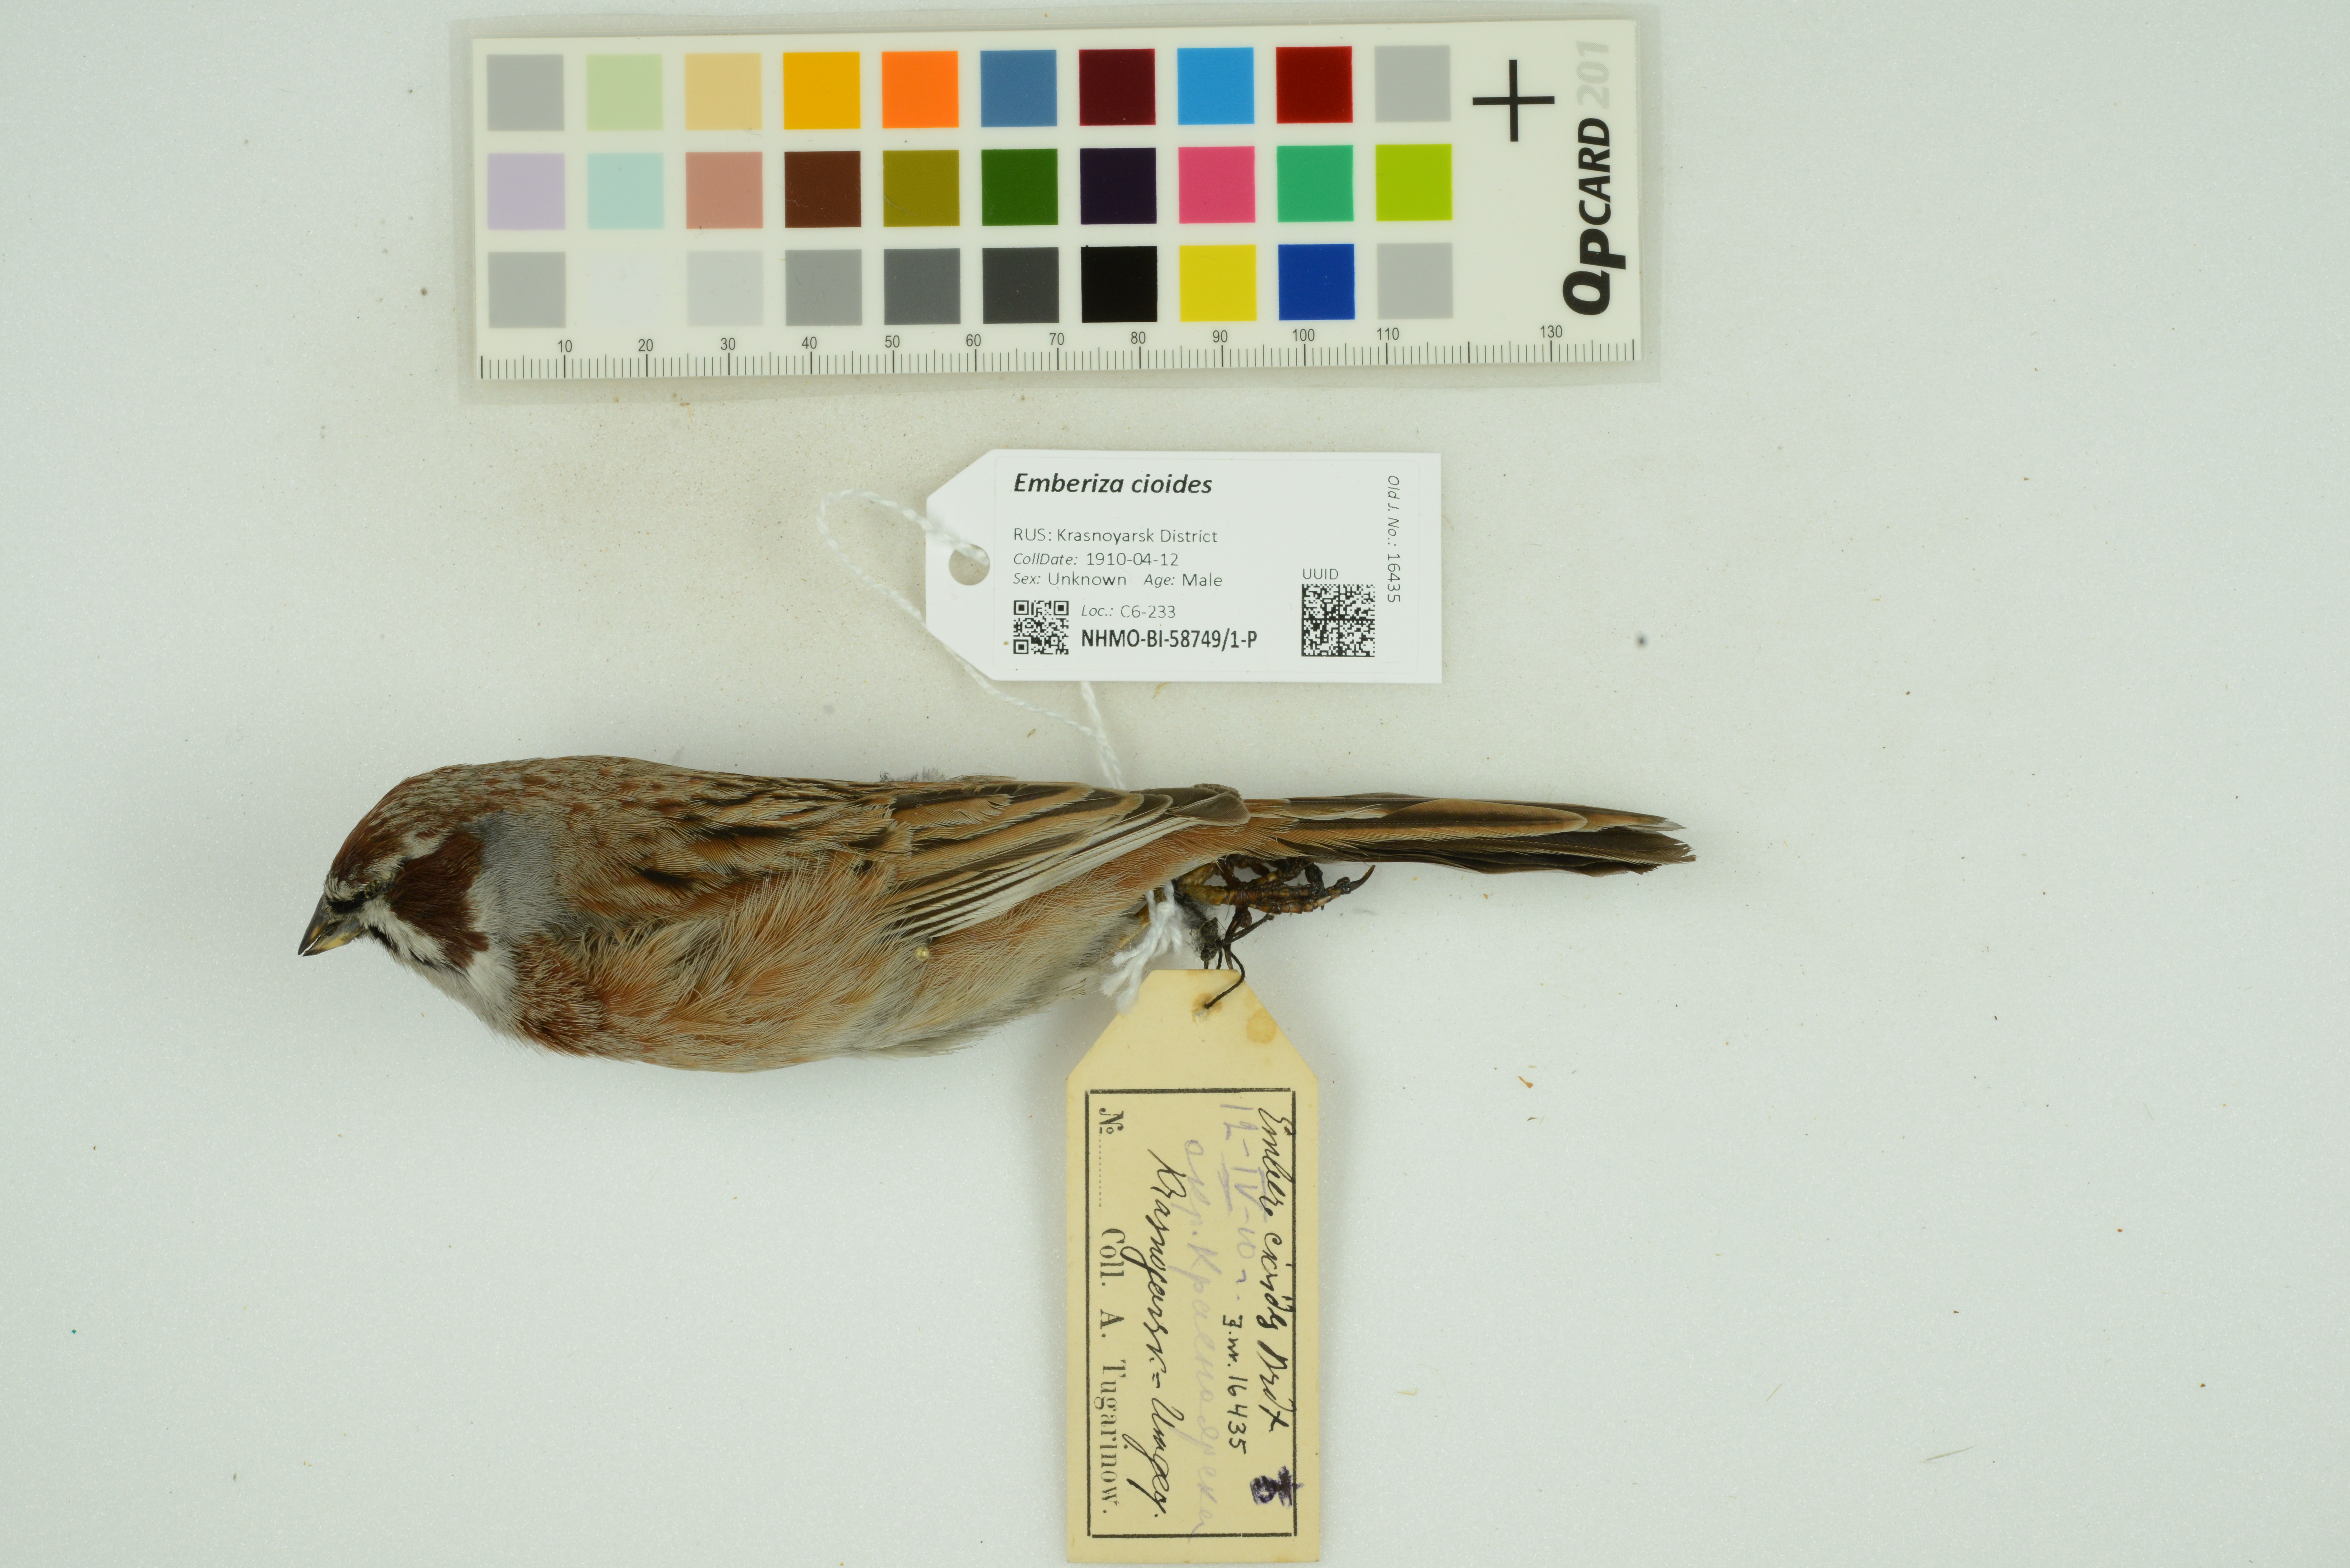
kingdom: Animalia
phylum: Chordata
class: Aves
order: Passeriformes
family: Emberizidae
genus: Emberiza
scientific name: Emberiza cioides
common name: Meadow bunting
